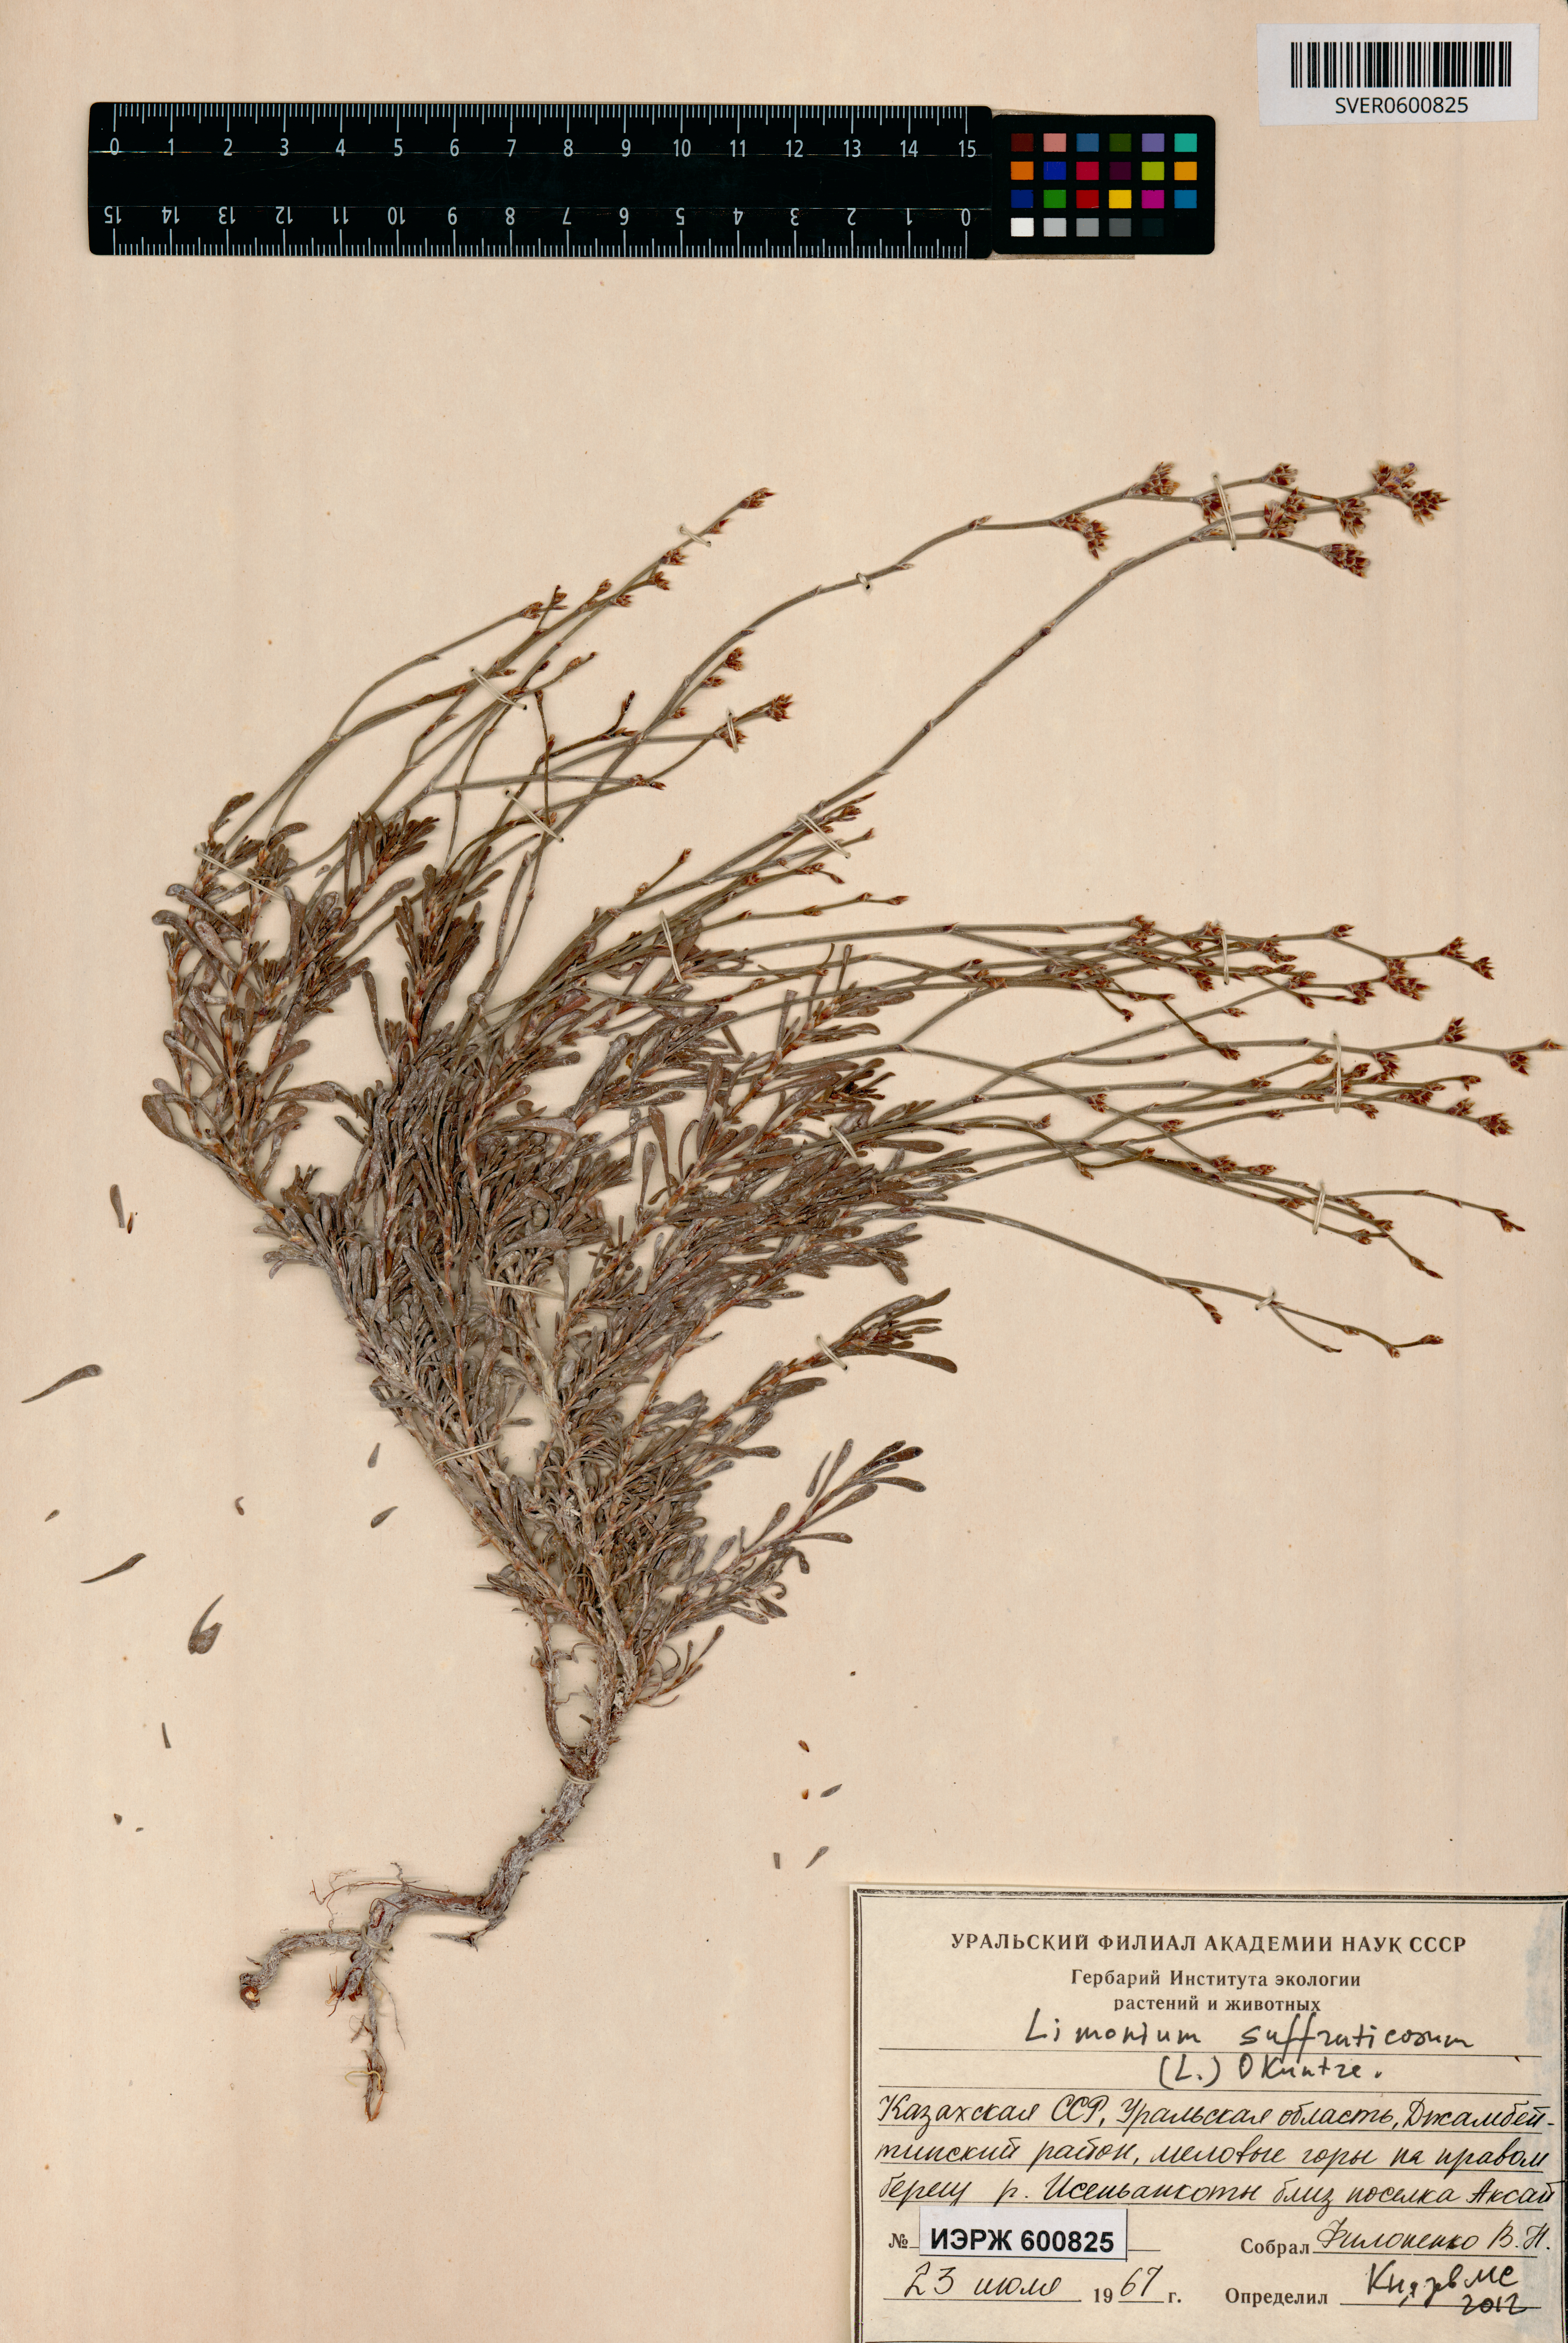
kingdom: Plantae
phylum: Tracheophyta
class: Magnoliopsida
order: Caryophyllales
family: Plumbaginaceae
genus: Limonium
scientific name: Limonium suffruticosum
